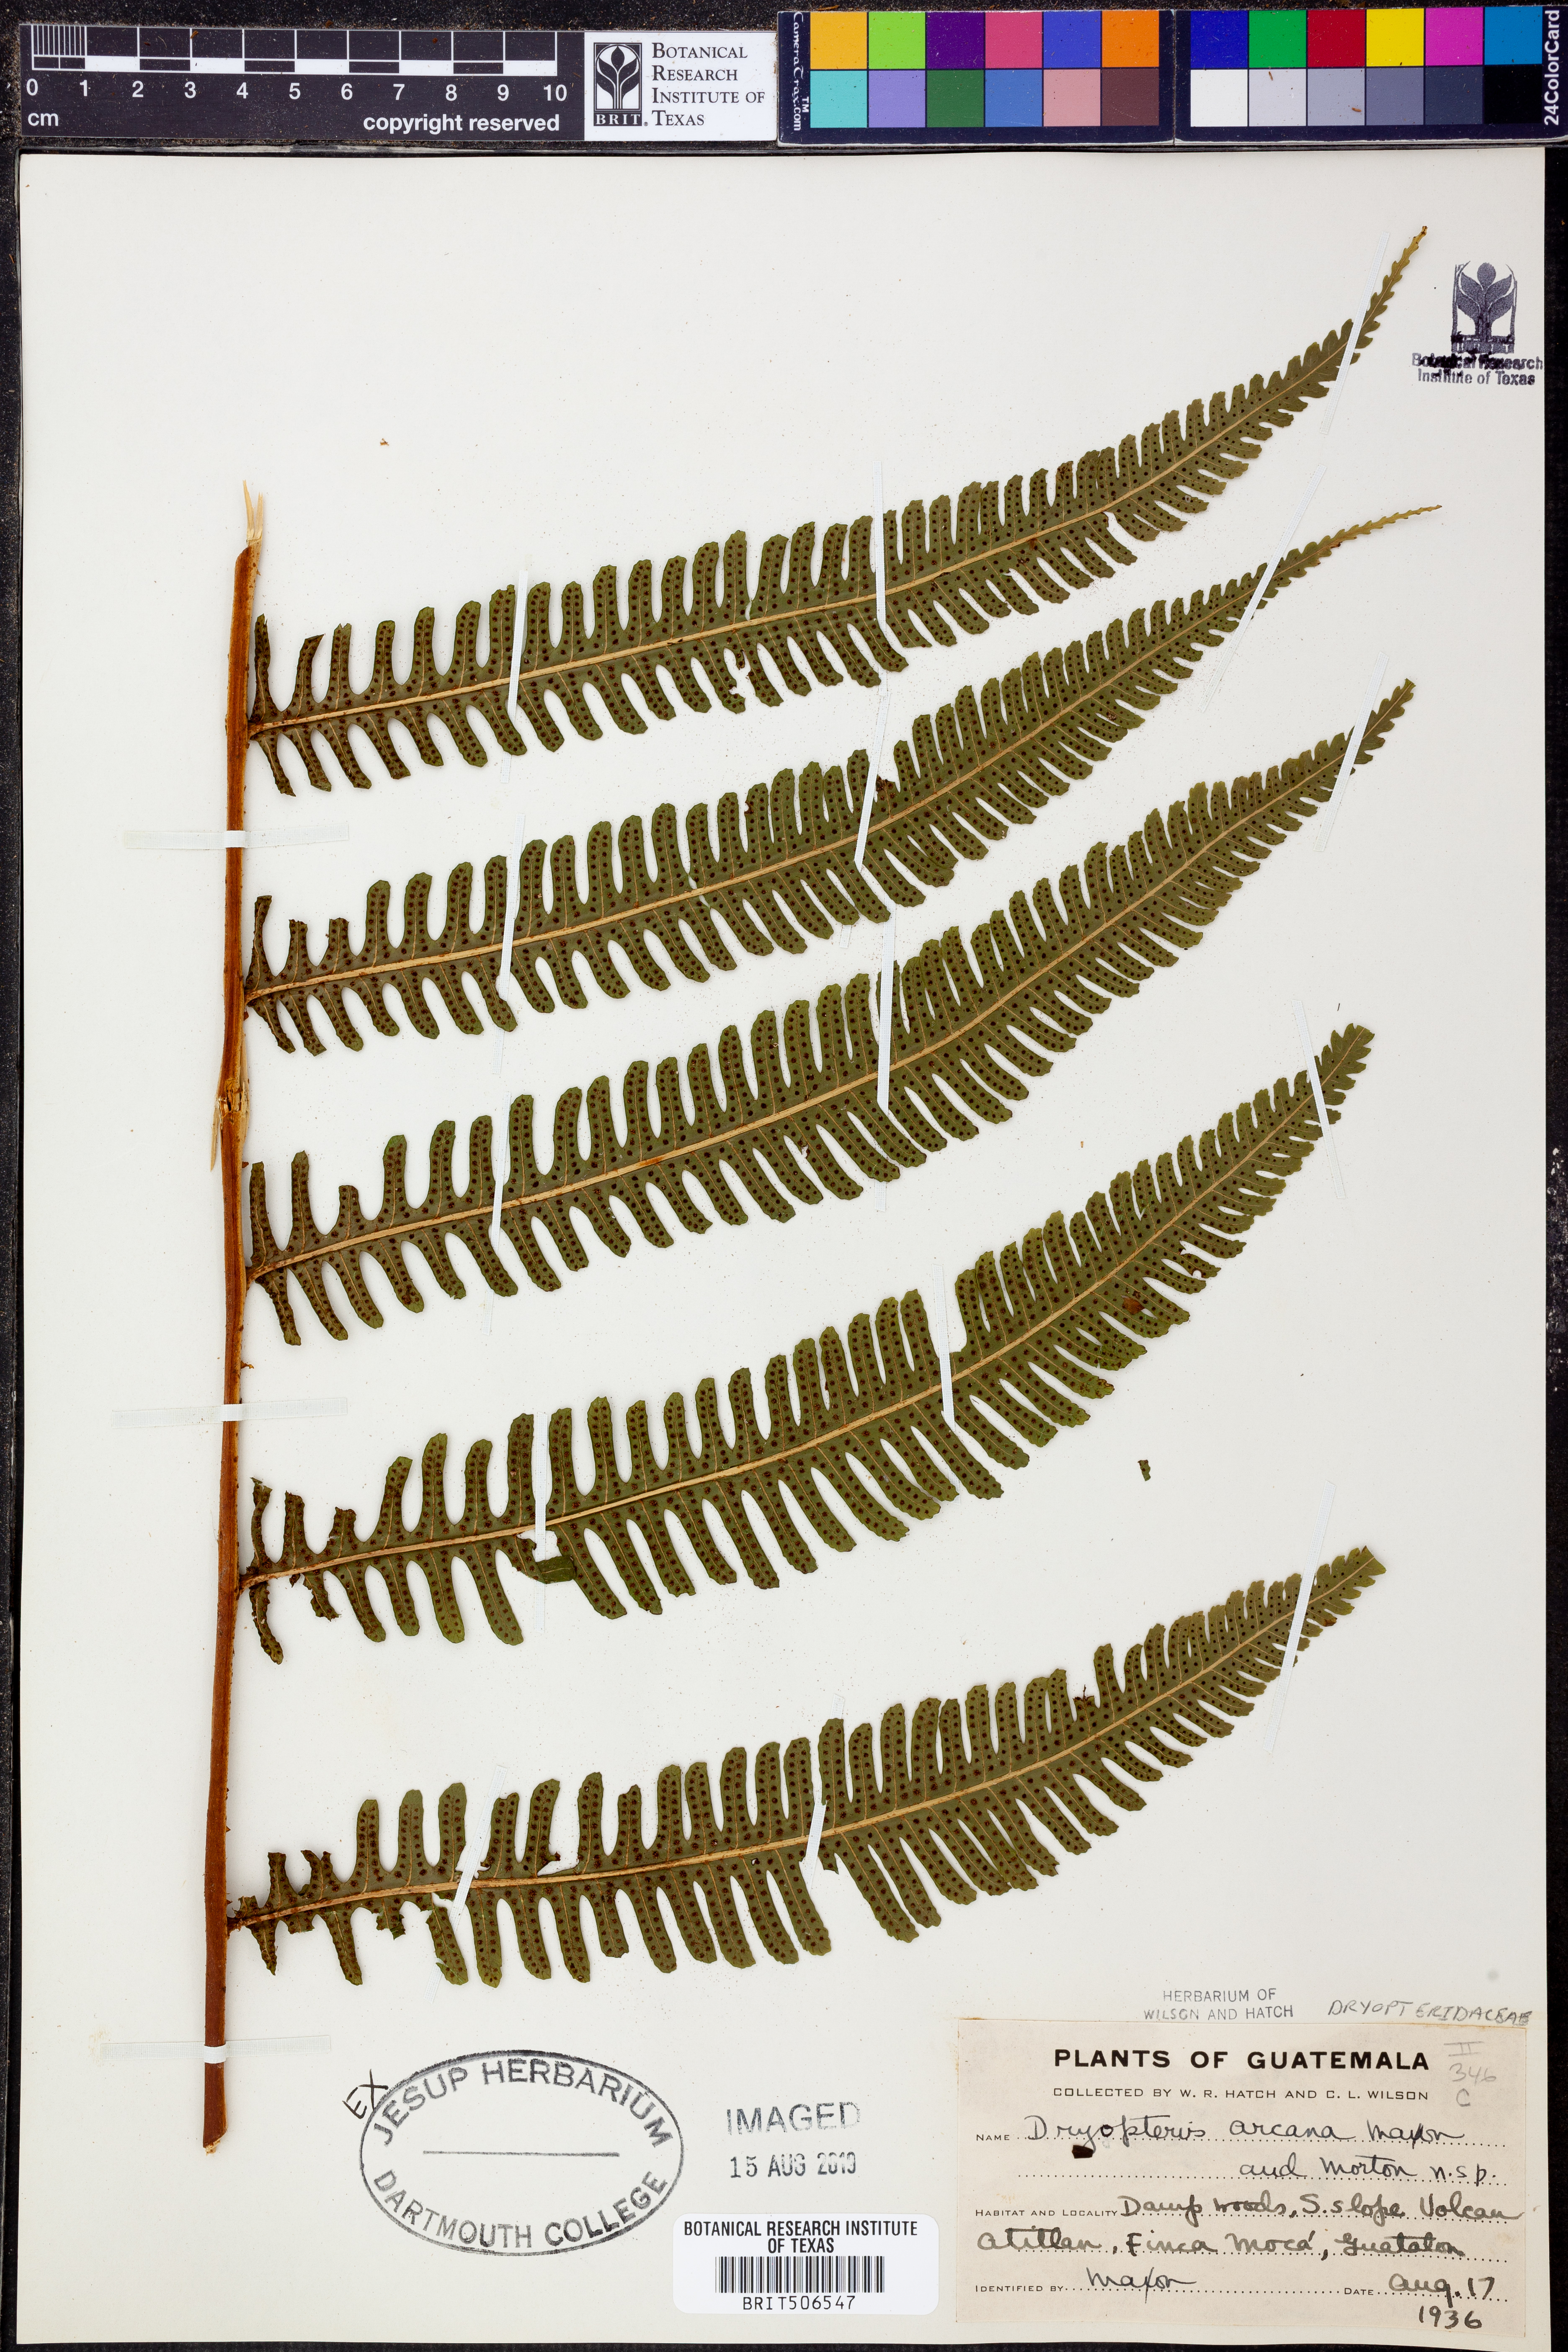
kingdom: Plantae
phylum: Tracheophyta
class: Polypodiopsida
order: Polypodiales
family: Thelypteridaceae
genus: Meniscium
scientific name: Meniscium arcanum
